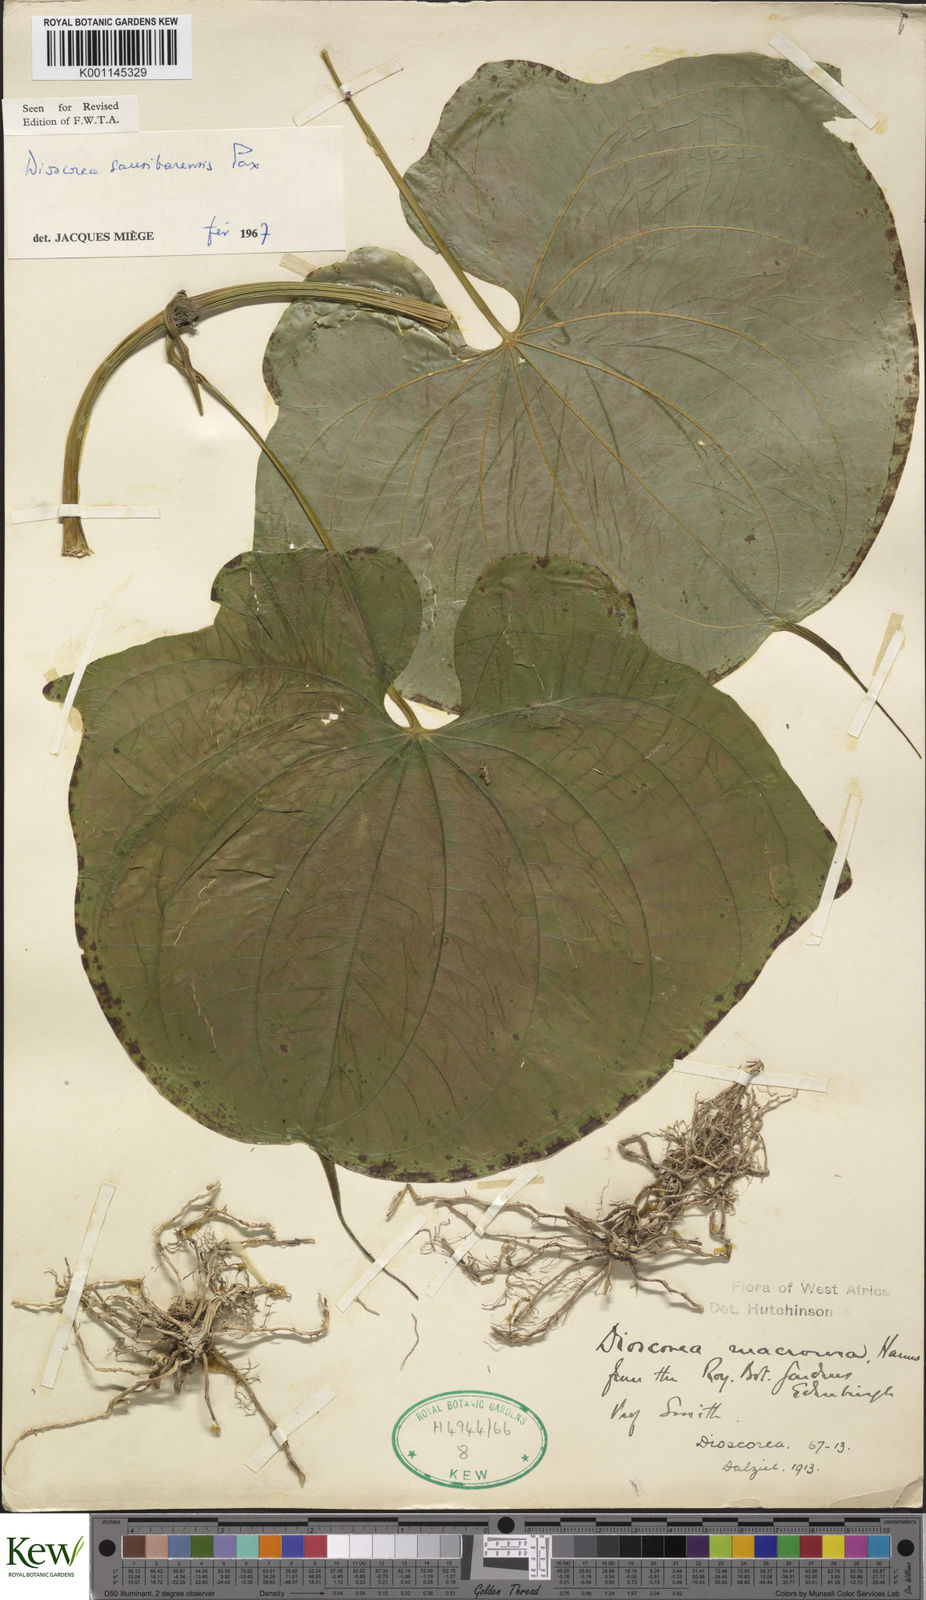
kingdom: Plantae
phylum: Tracheophyta
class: Liliopsida
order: Dioscoreales
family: Dioscoreaceae
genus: Dioscorea
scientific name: Dioscorea sansibarensis
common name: Zanzibar yam
